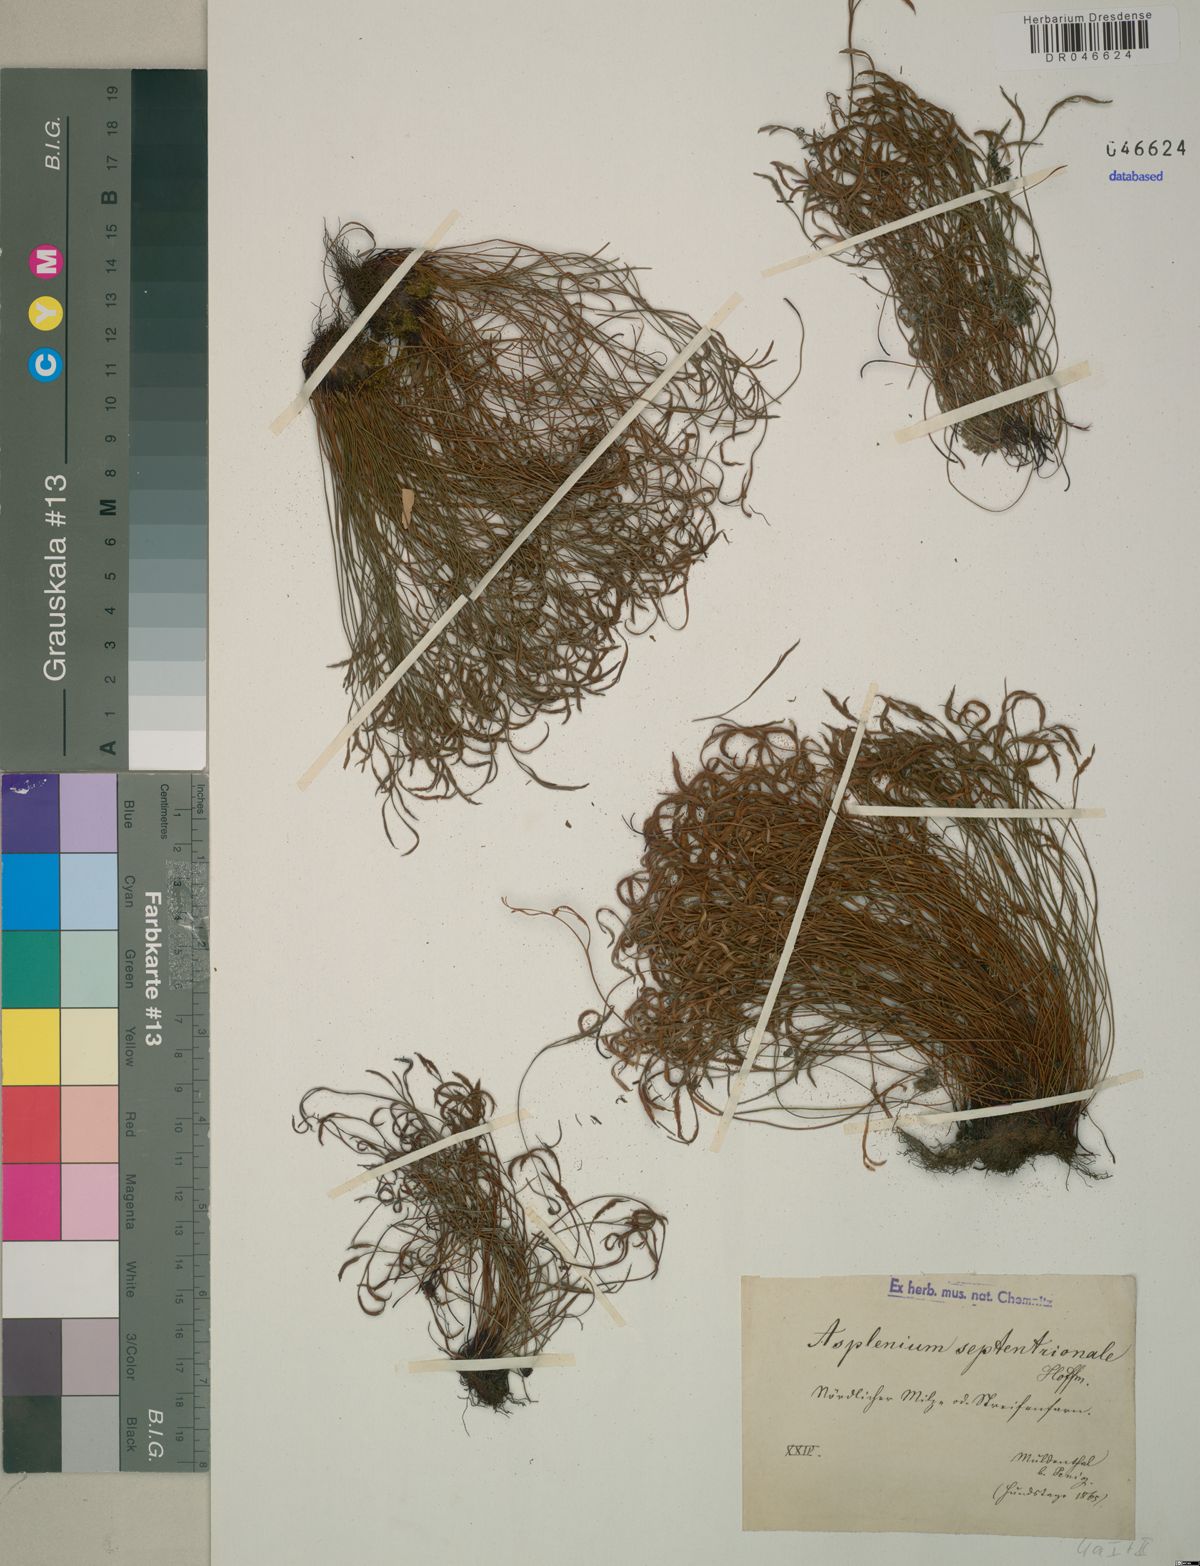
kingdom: Plantae
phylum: Tracheophyta
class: Polypodiopsida
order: Polypodiales
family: Aspleniaceae
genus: Asplenium
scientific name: Asplenium septentrionale
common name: Forked spleenwort
